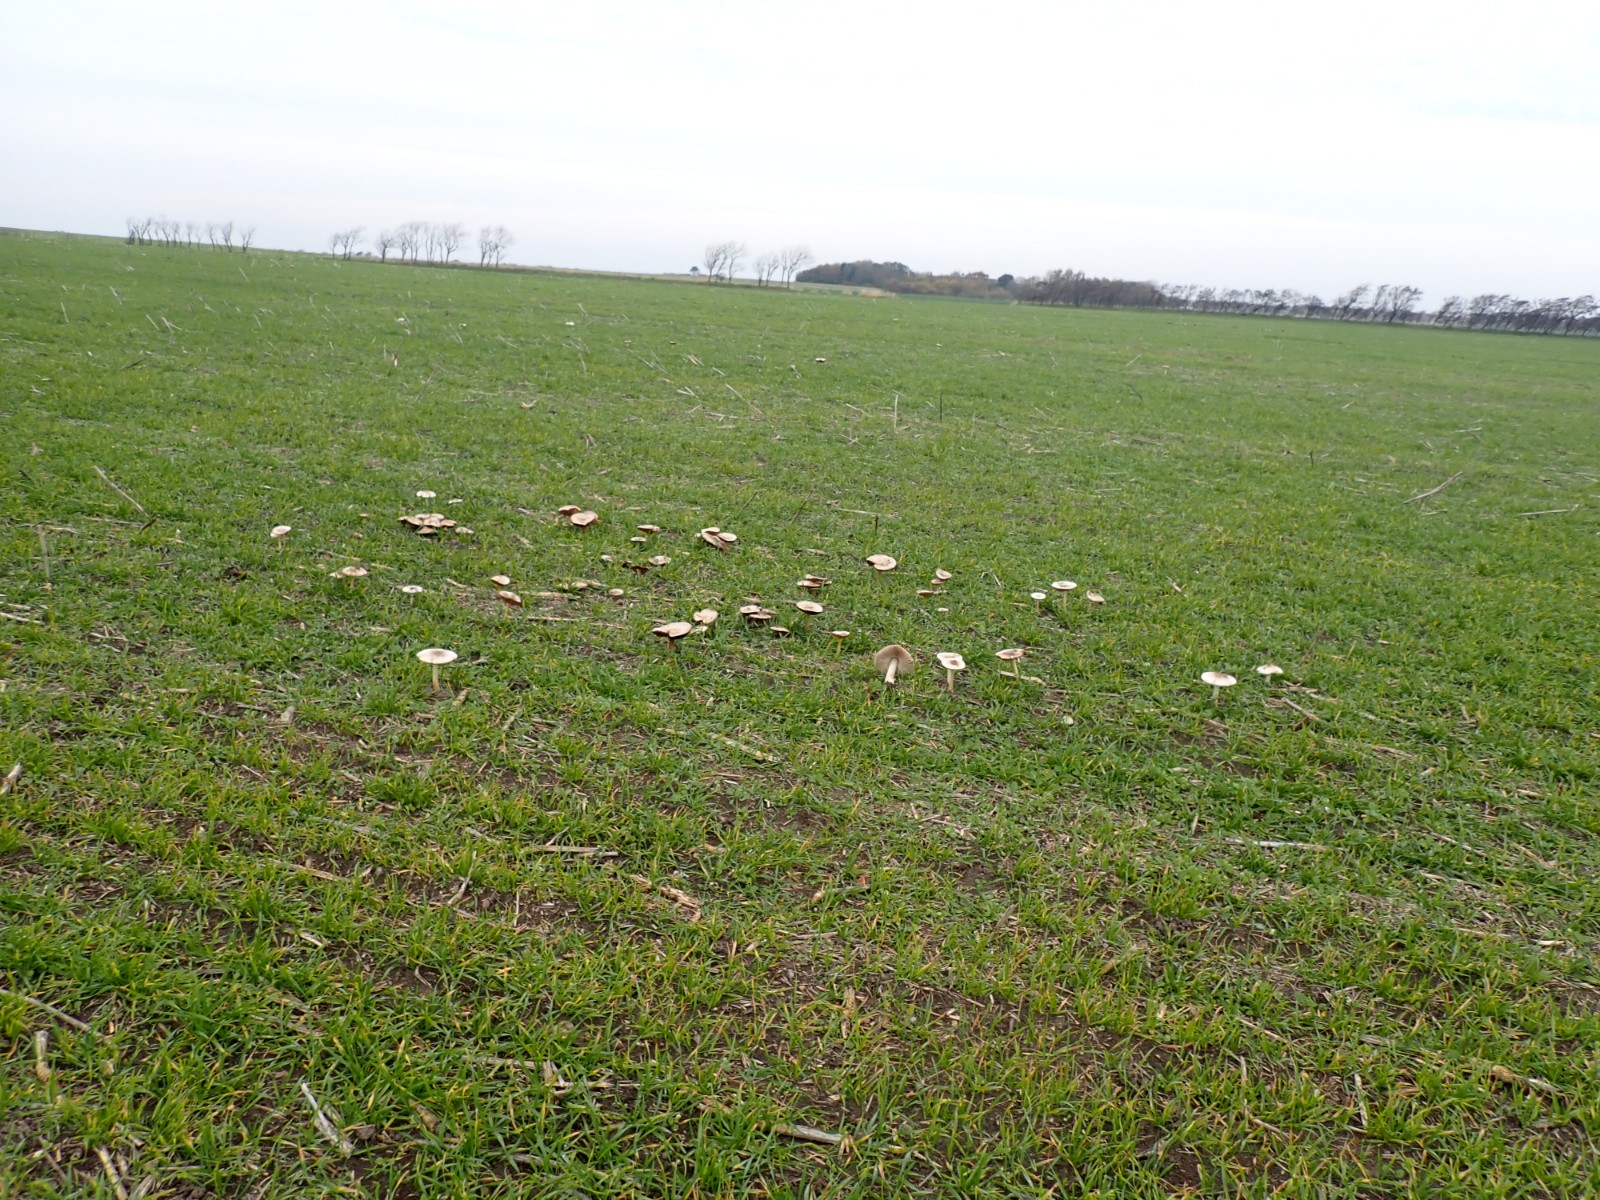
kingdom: Fungi
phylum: Basidiomycota
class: Agaricomycetes
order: Agaricales
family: Pluteaceae
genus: Volvopluteus
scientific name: Volvopluteus gloiocephalus
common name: høj posesvamp
